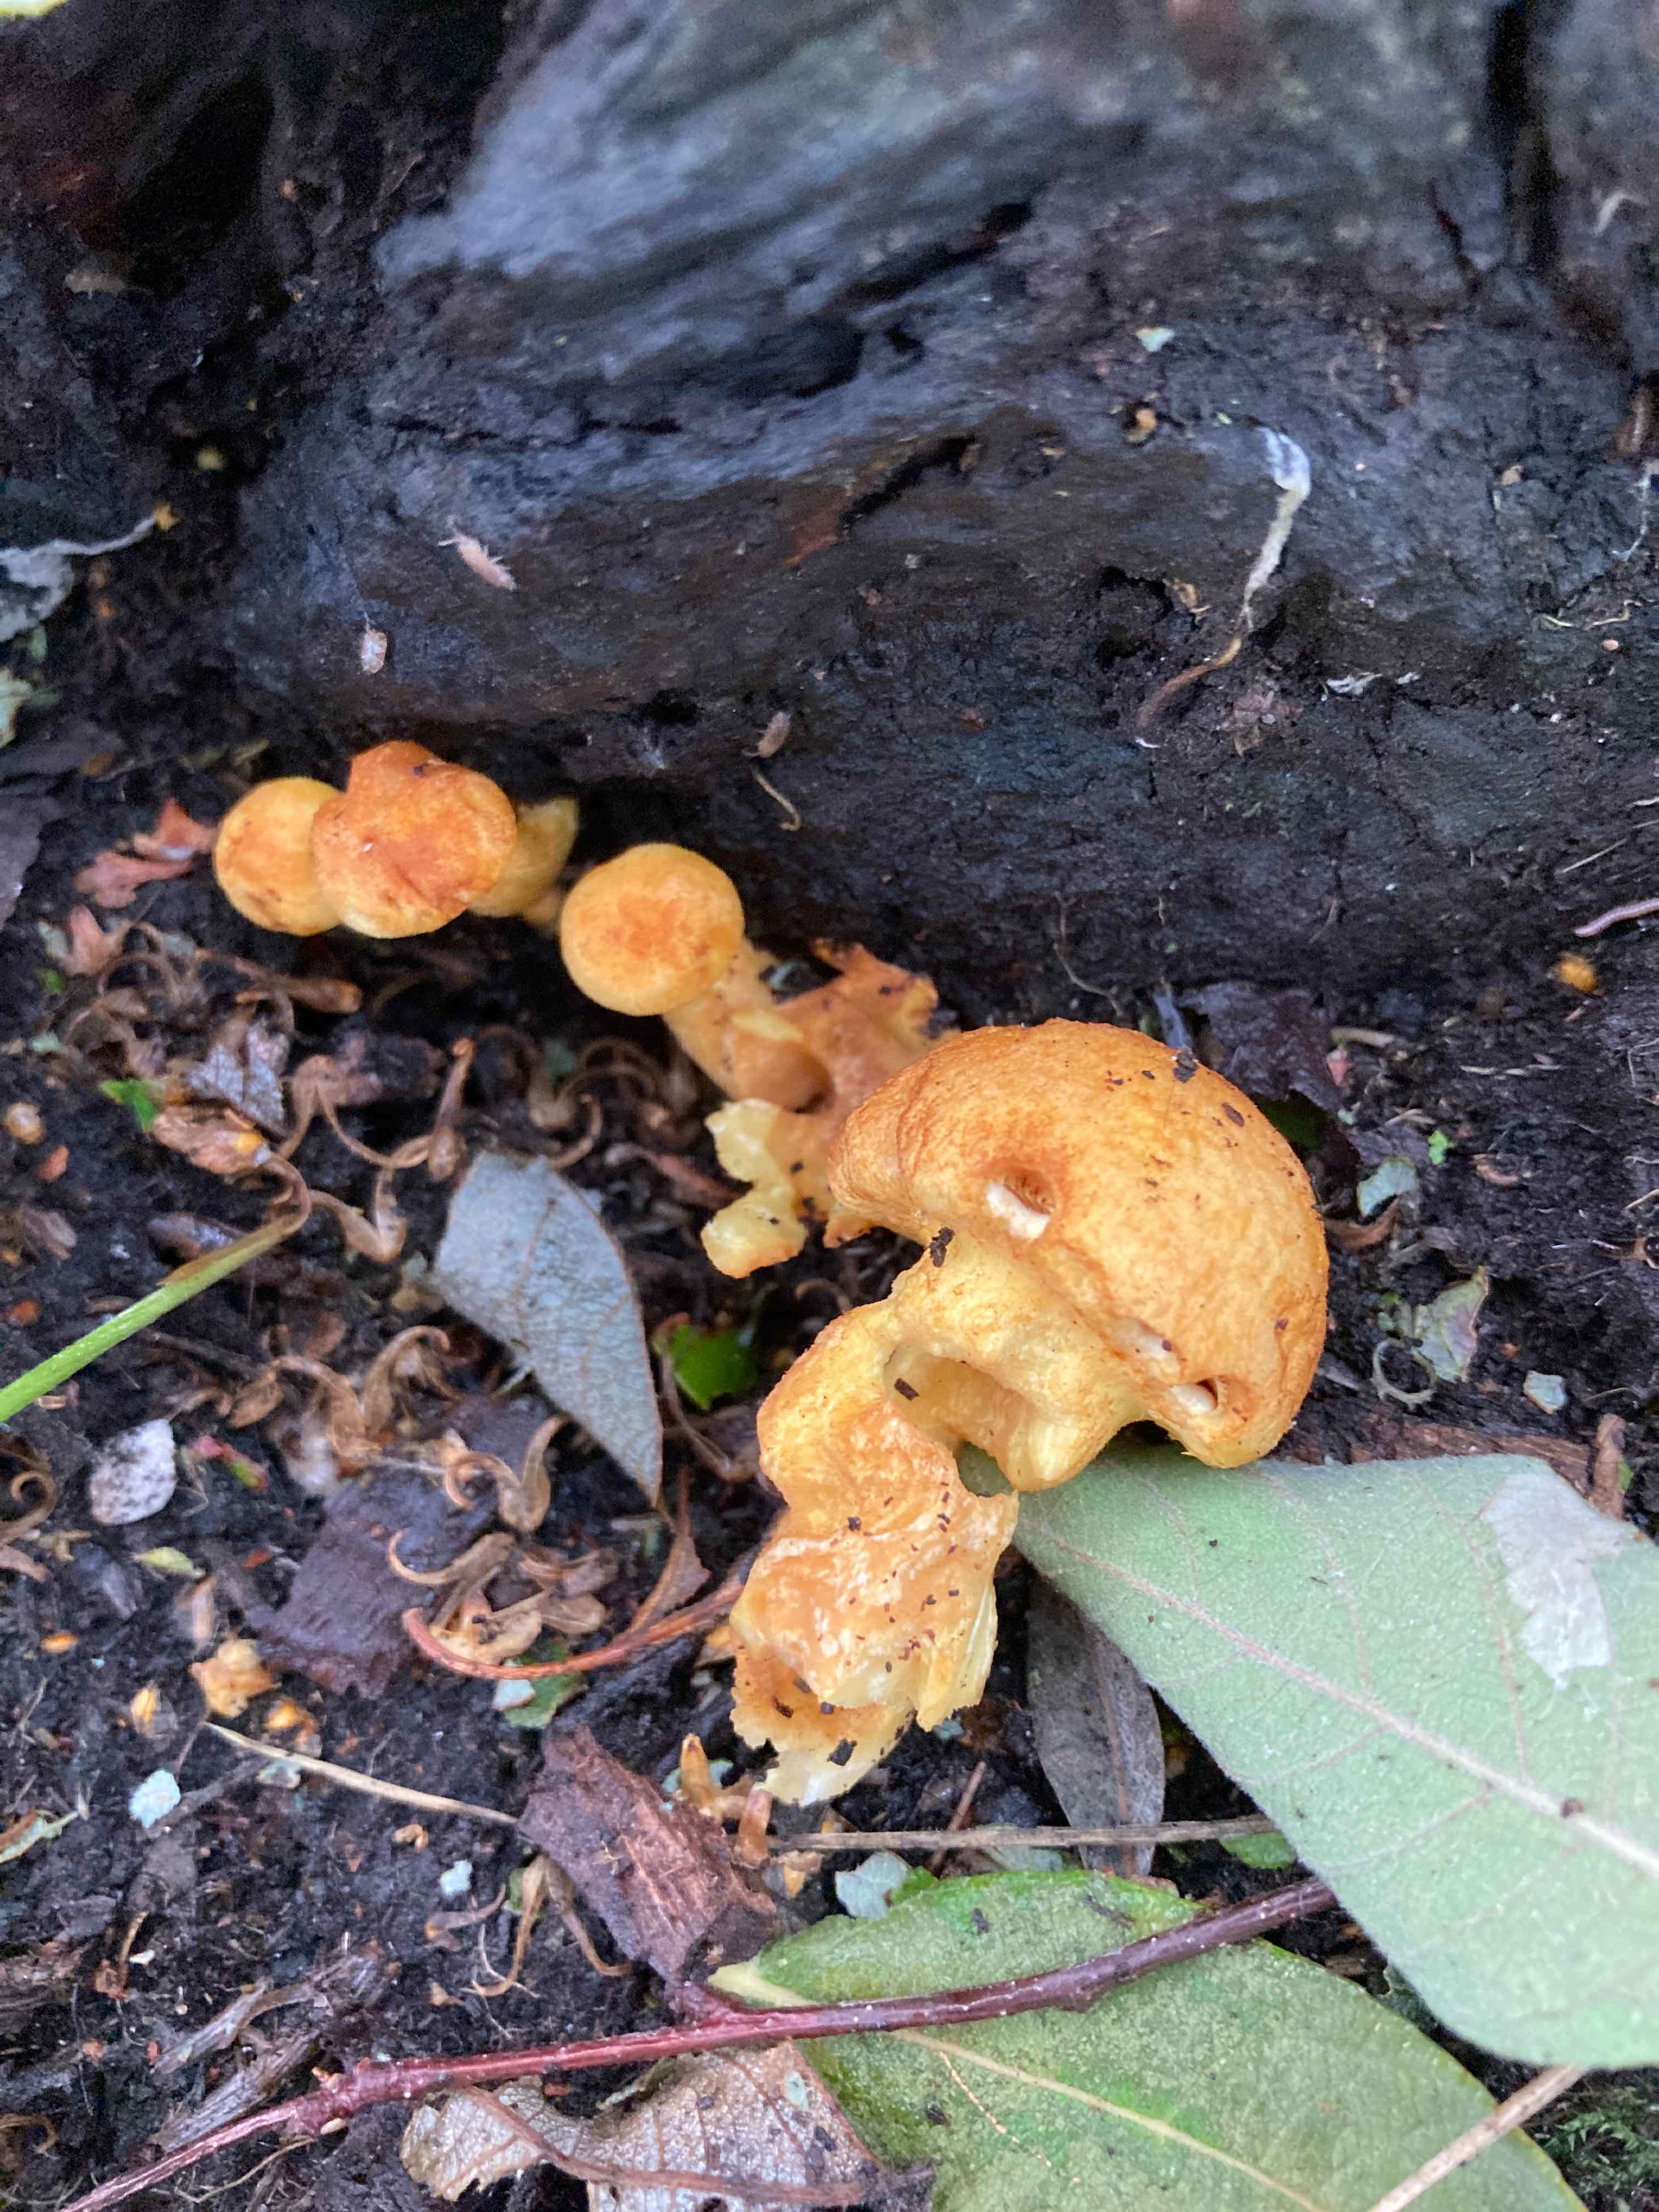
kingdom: Fungi
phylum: Basidiomycota
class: Agaricomycetes
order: Agaricales
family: Hymenogastraceae
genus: Gymnopilus
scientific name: Gymnopilus spectabilis
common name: fibret flammehat
